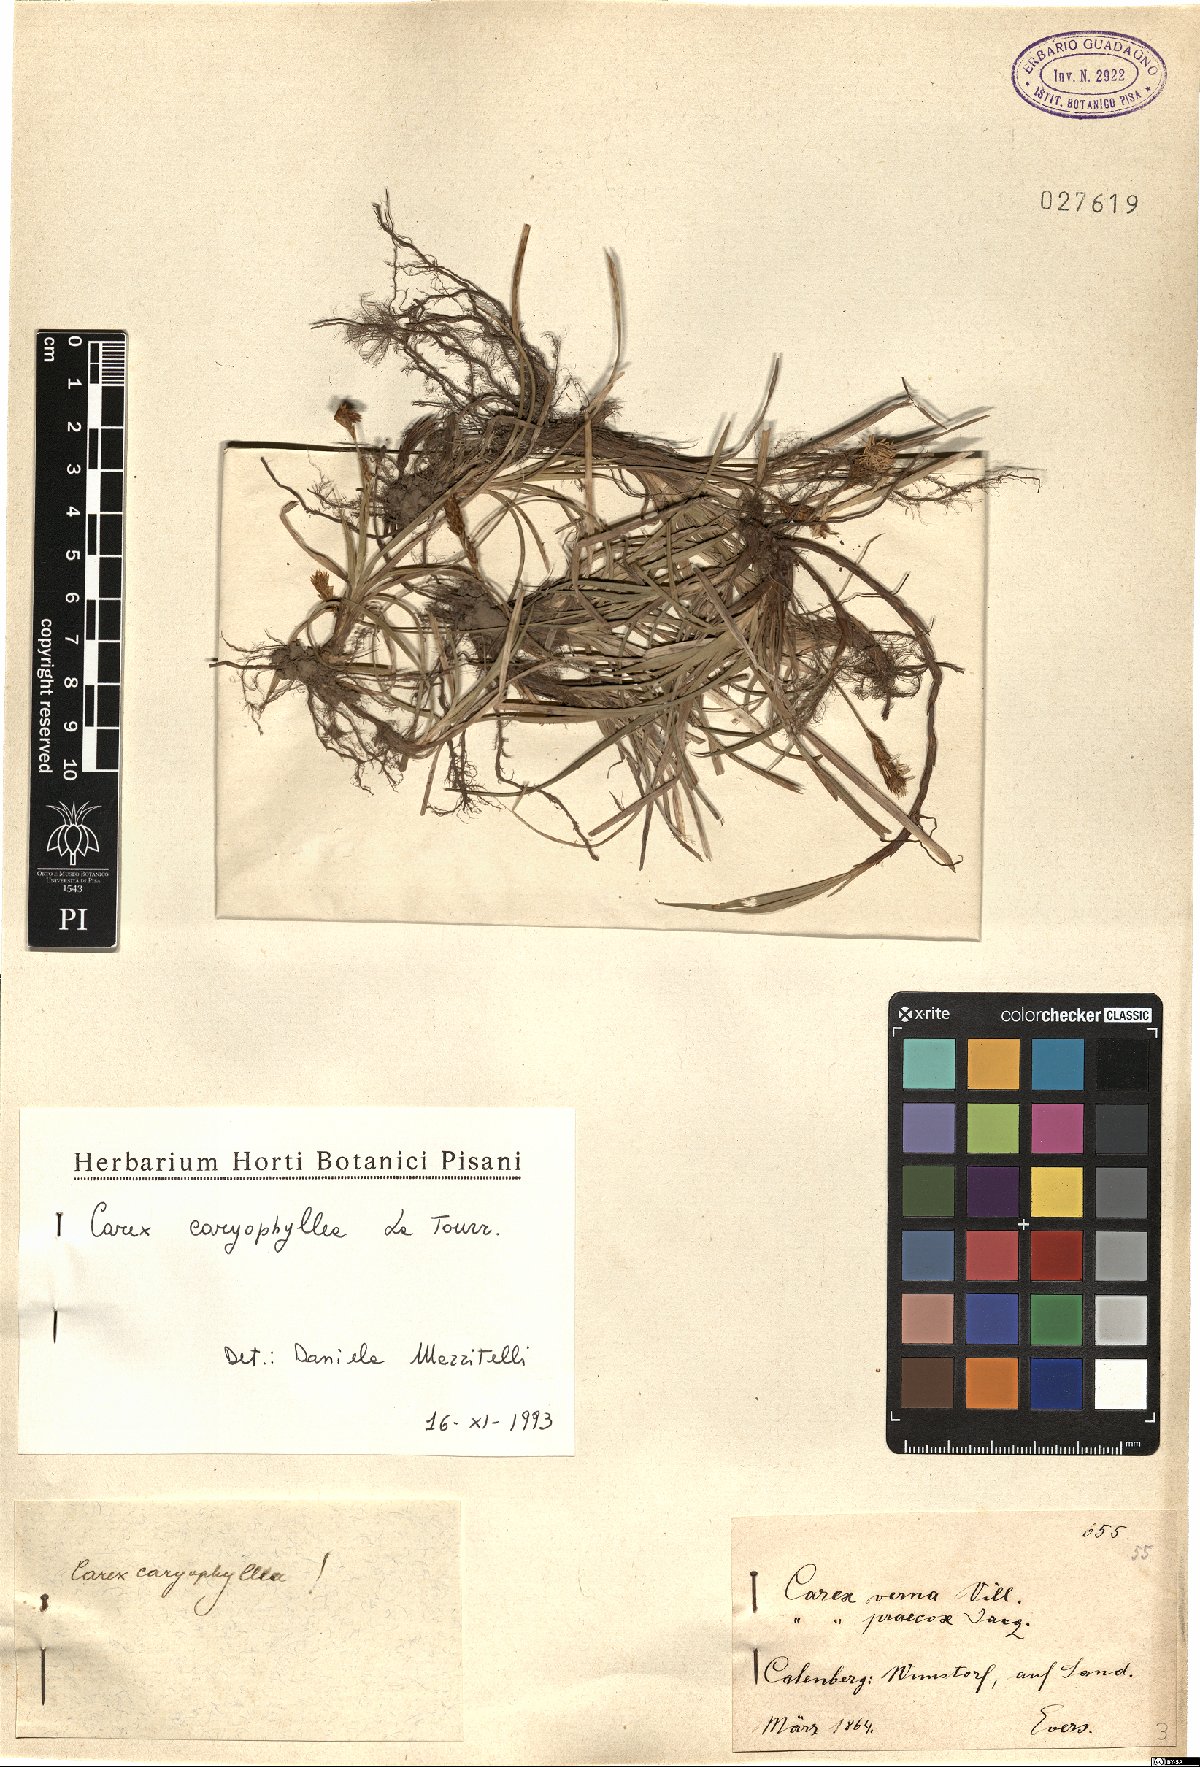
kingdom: Plantae
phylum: Tracheophyta
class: Liliopsida
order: Poales
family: Cyperaceae
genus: Carex
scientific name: Carex caryophyllea
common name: Spring sedge
